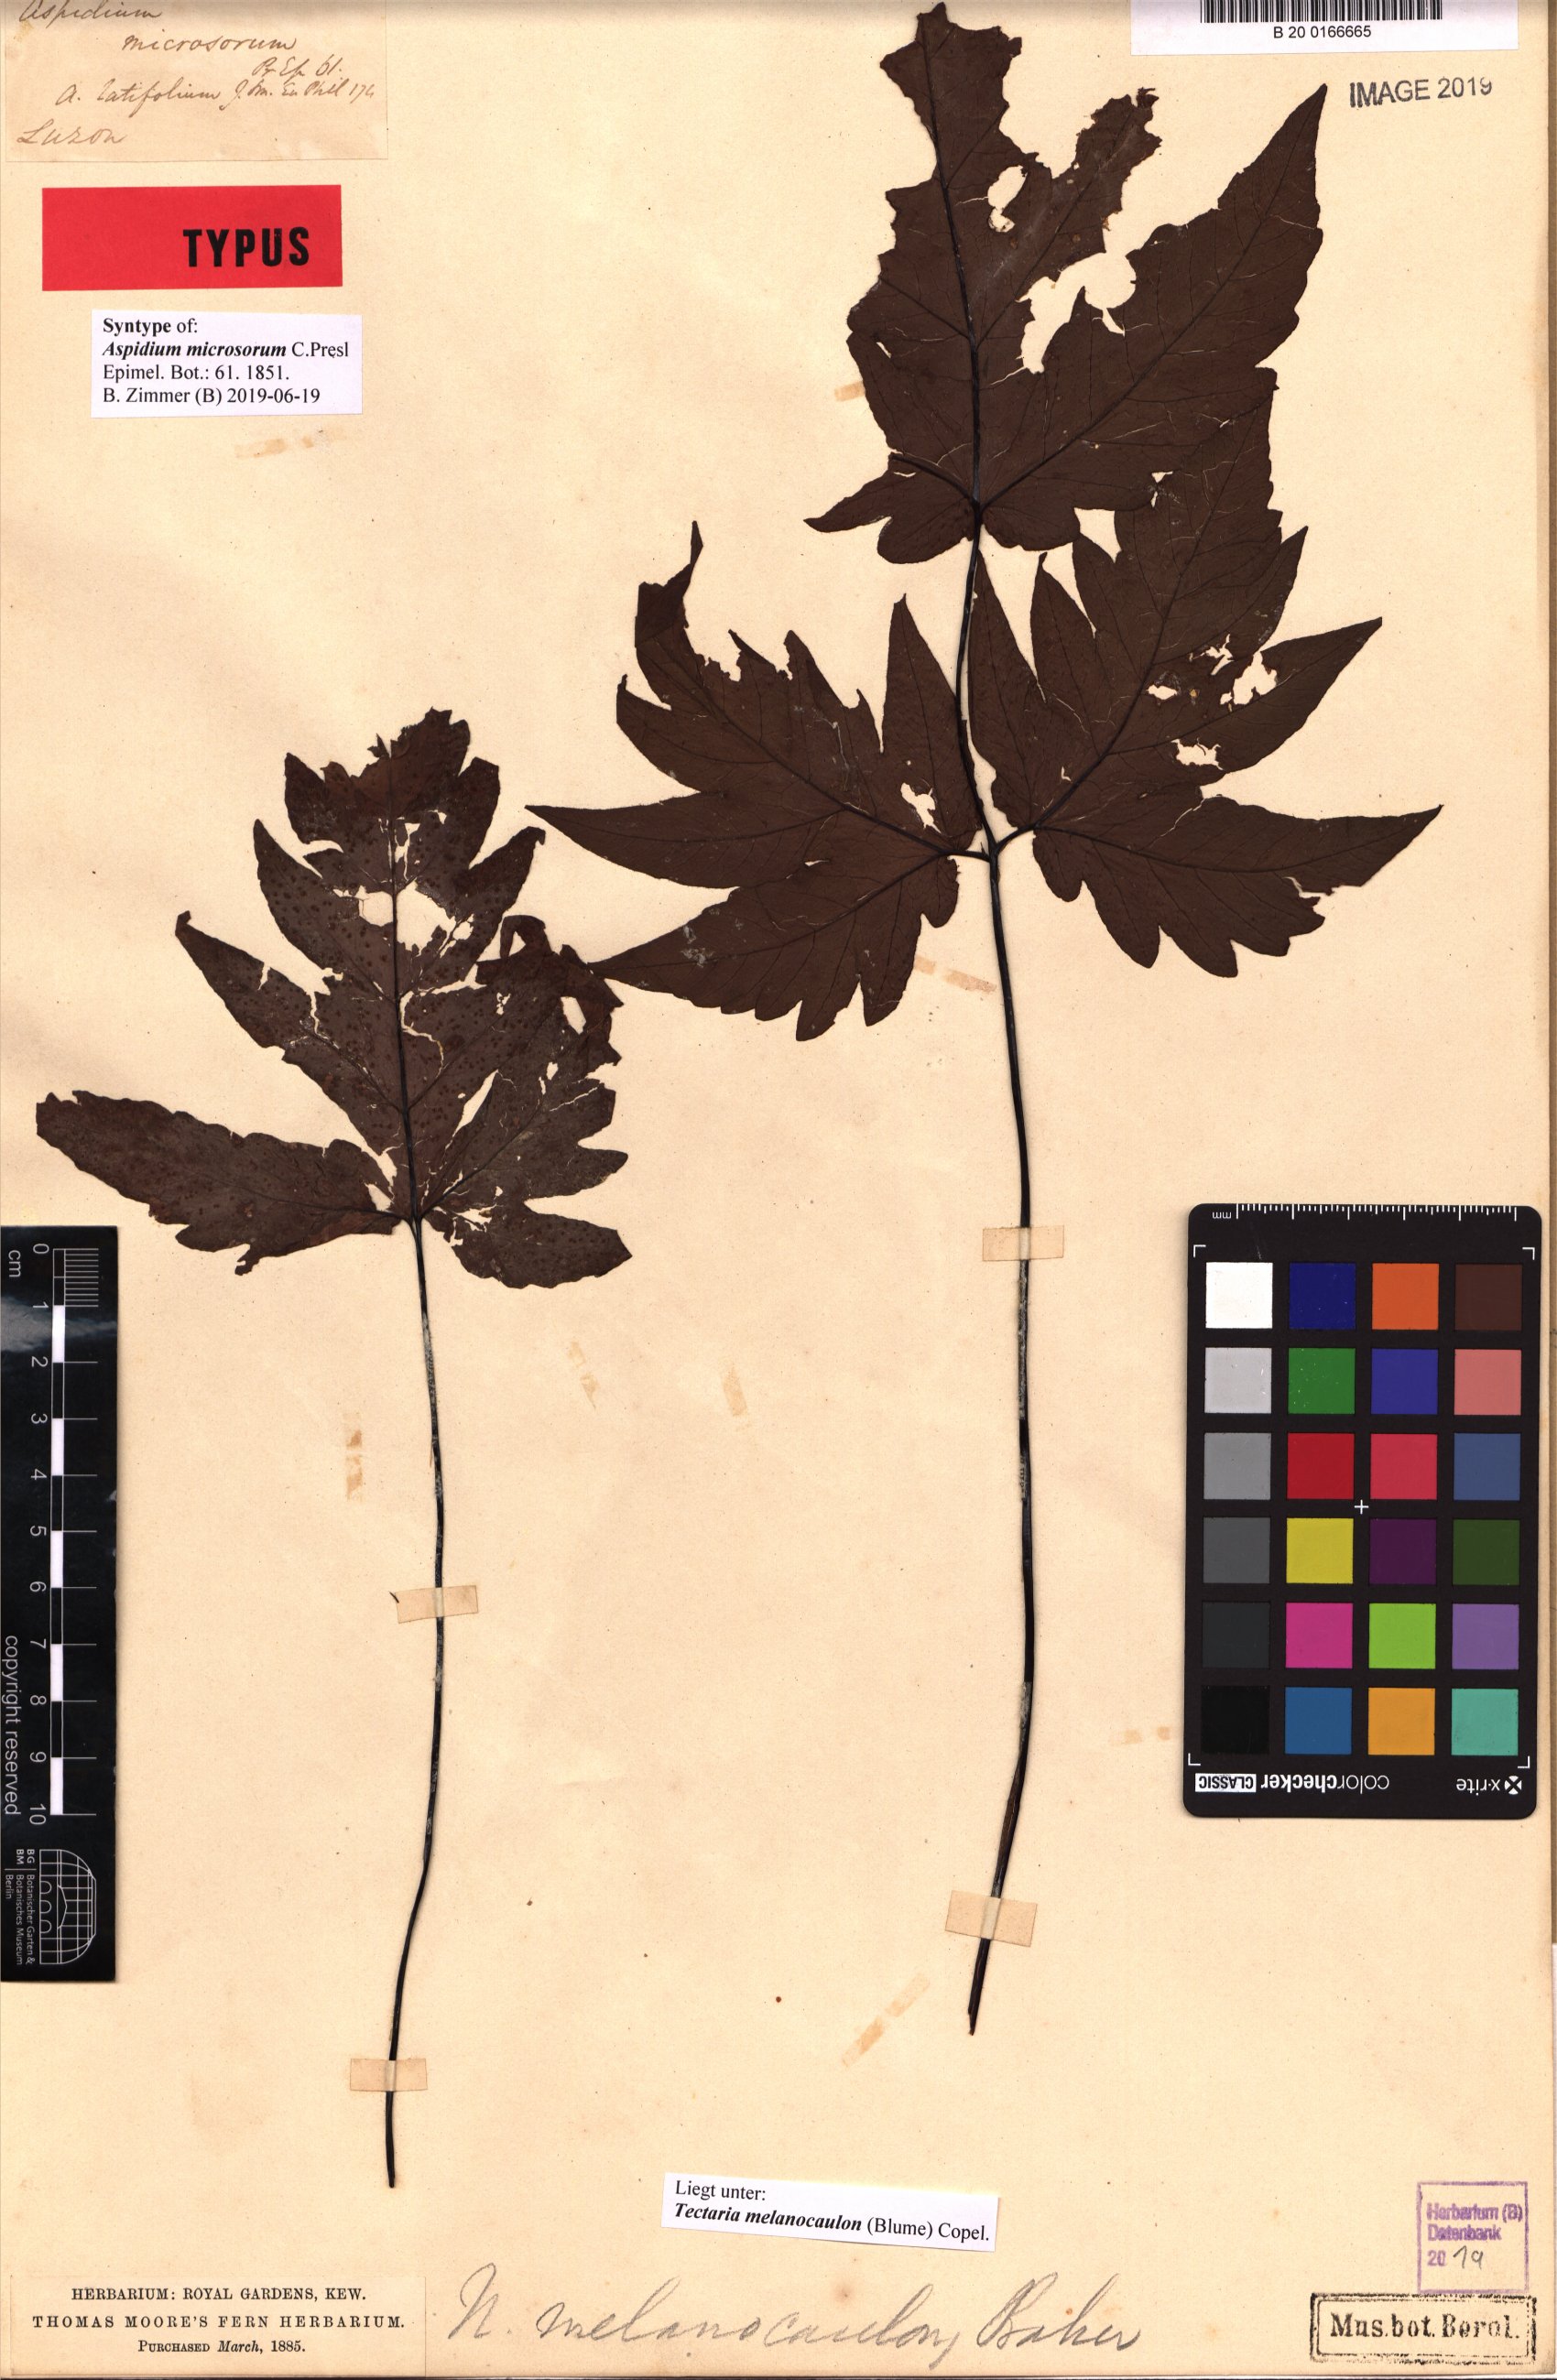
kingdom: Plantae
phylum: Tracheophyta
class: Polypodiopsida
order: Polypodiales
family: Tectariaceae
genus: Tectaria
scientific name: Tectaria melanocaulos
